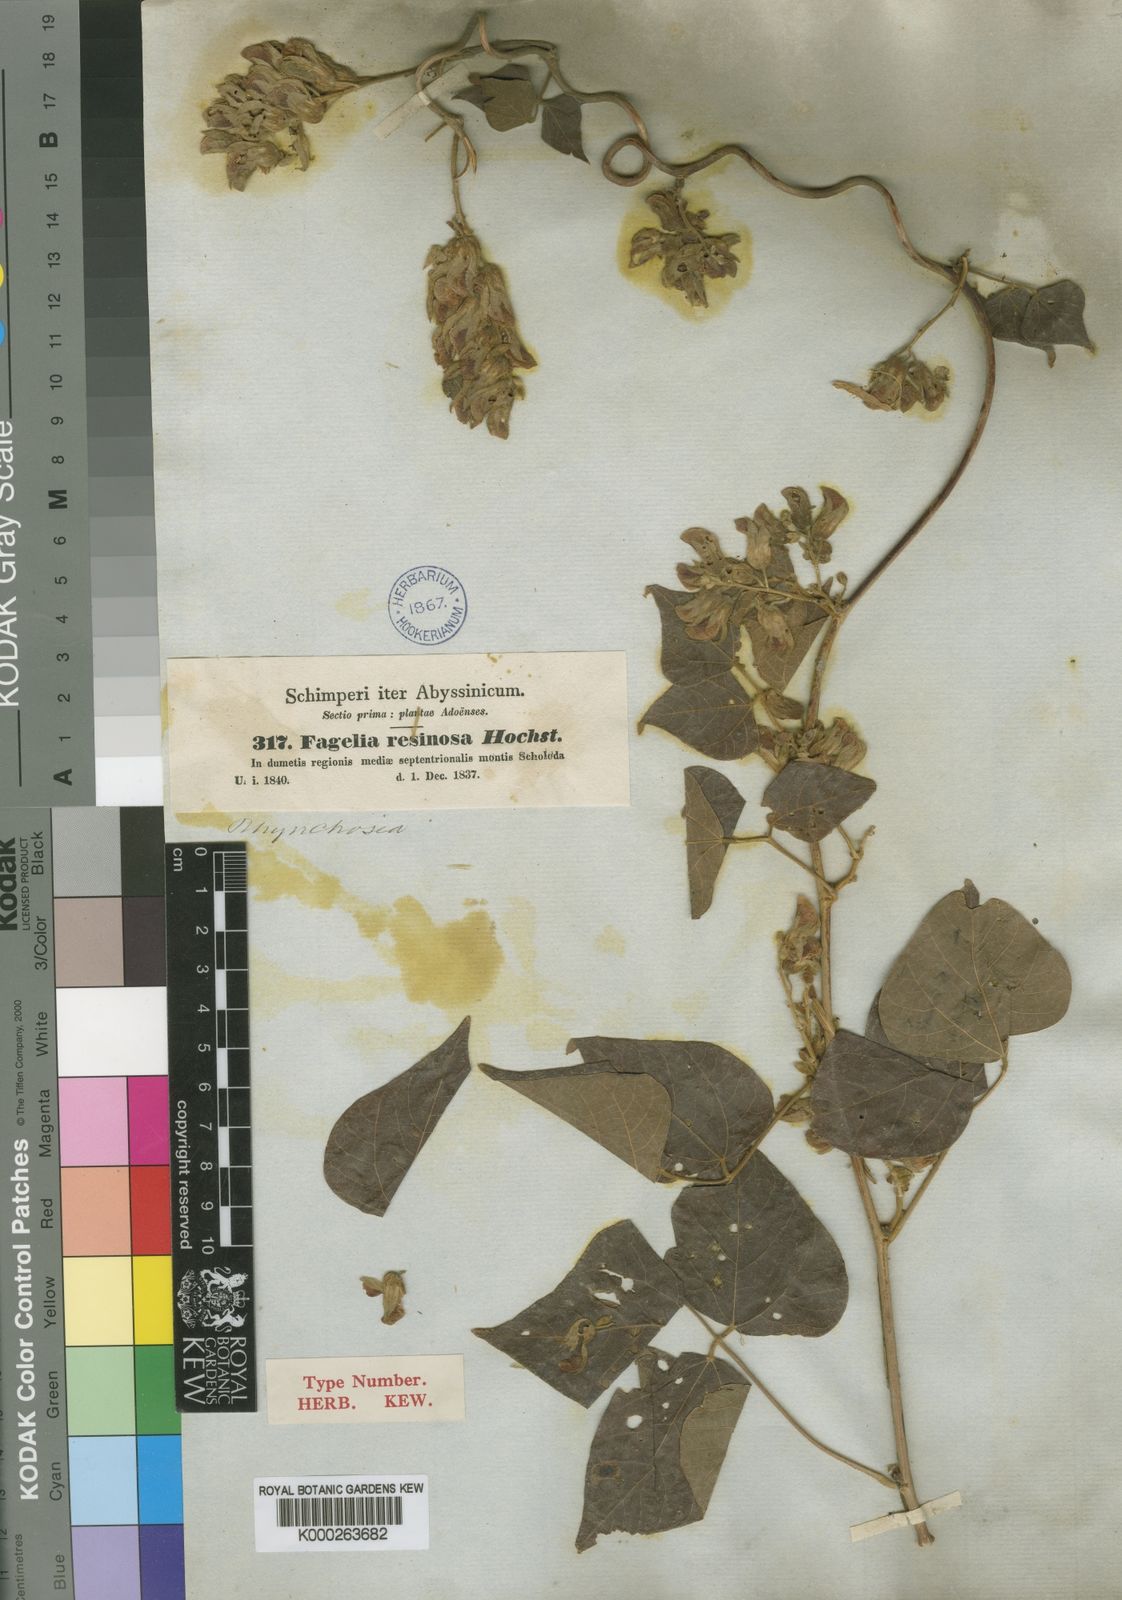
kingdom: Plantae
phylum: Tracheophyta
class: Magnoliopsida
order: Fabales
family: Fabaceae
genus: Rhynchosia
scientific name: Rhynchosia resinosa
